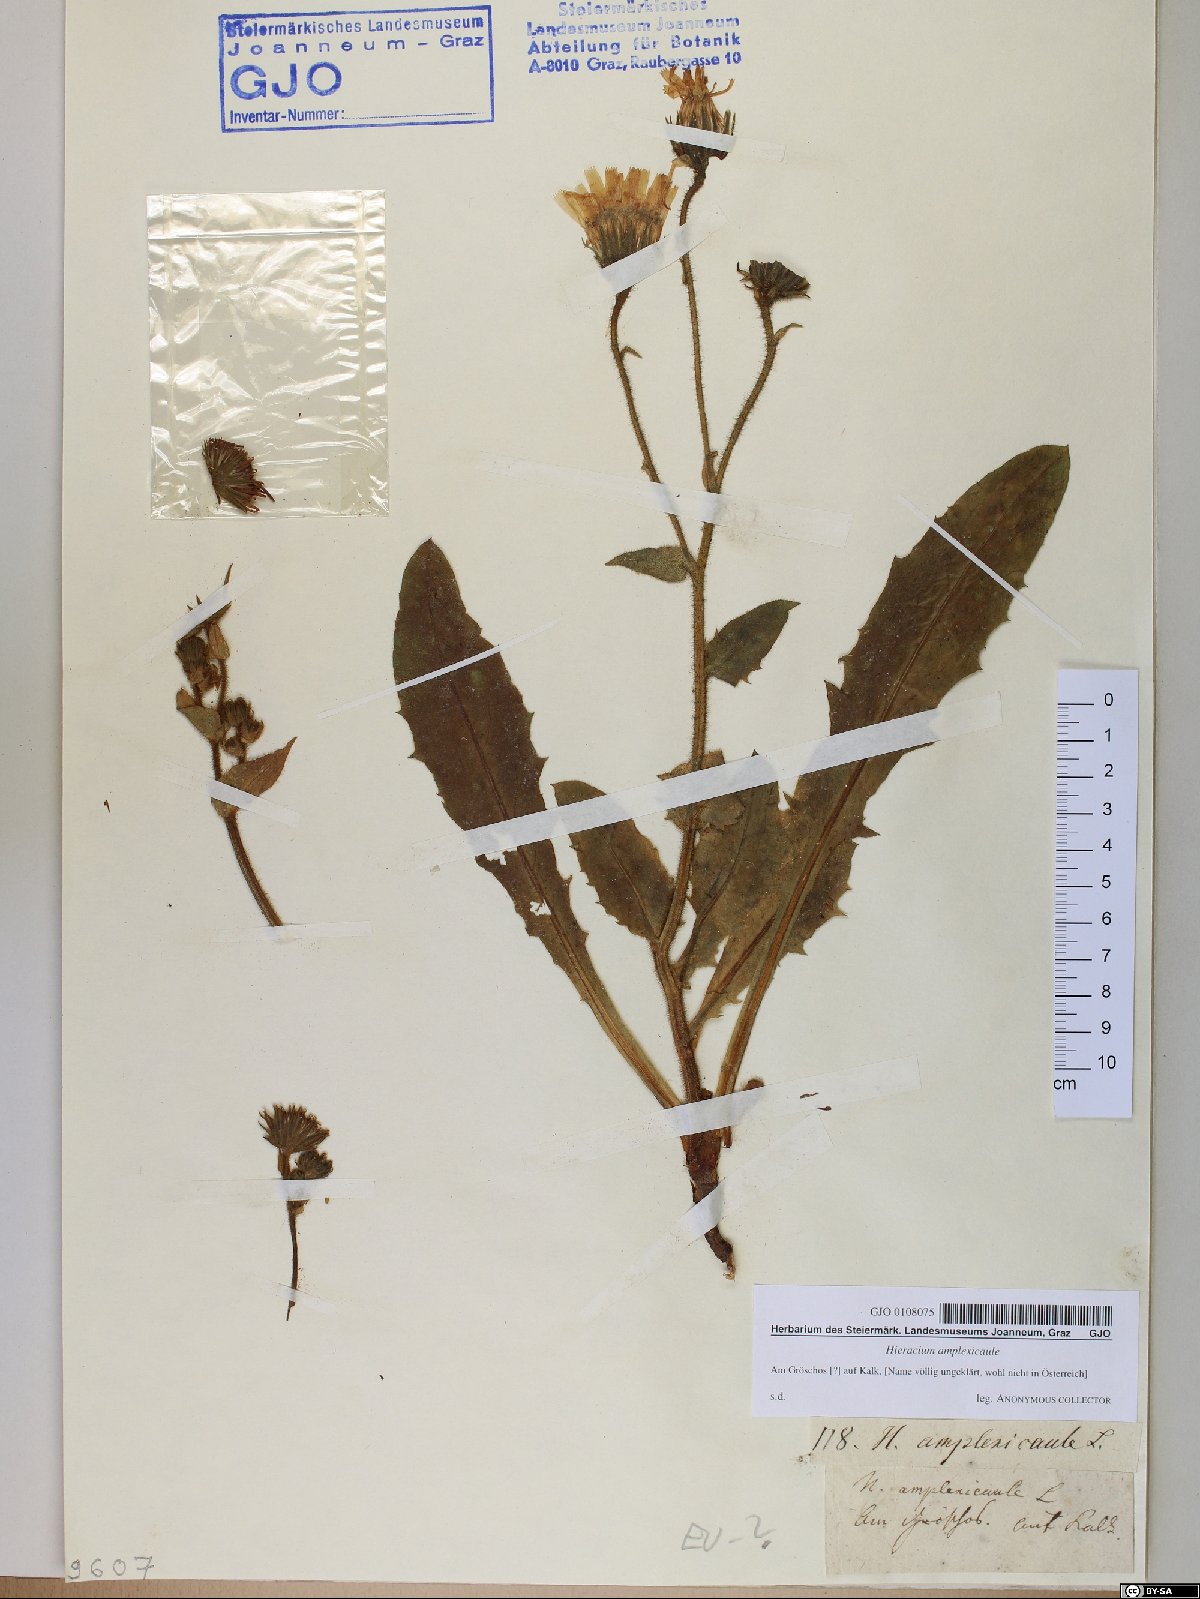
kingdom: Plantae
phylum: Tracheophyta
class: Magnoliopsida
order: Asterales
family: Asteraceae
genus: Hieracium
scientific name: Hieracium amplexicaule
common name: Sticky hawkweed
